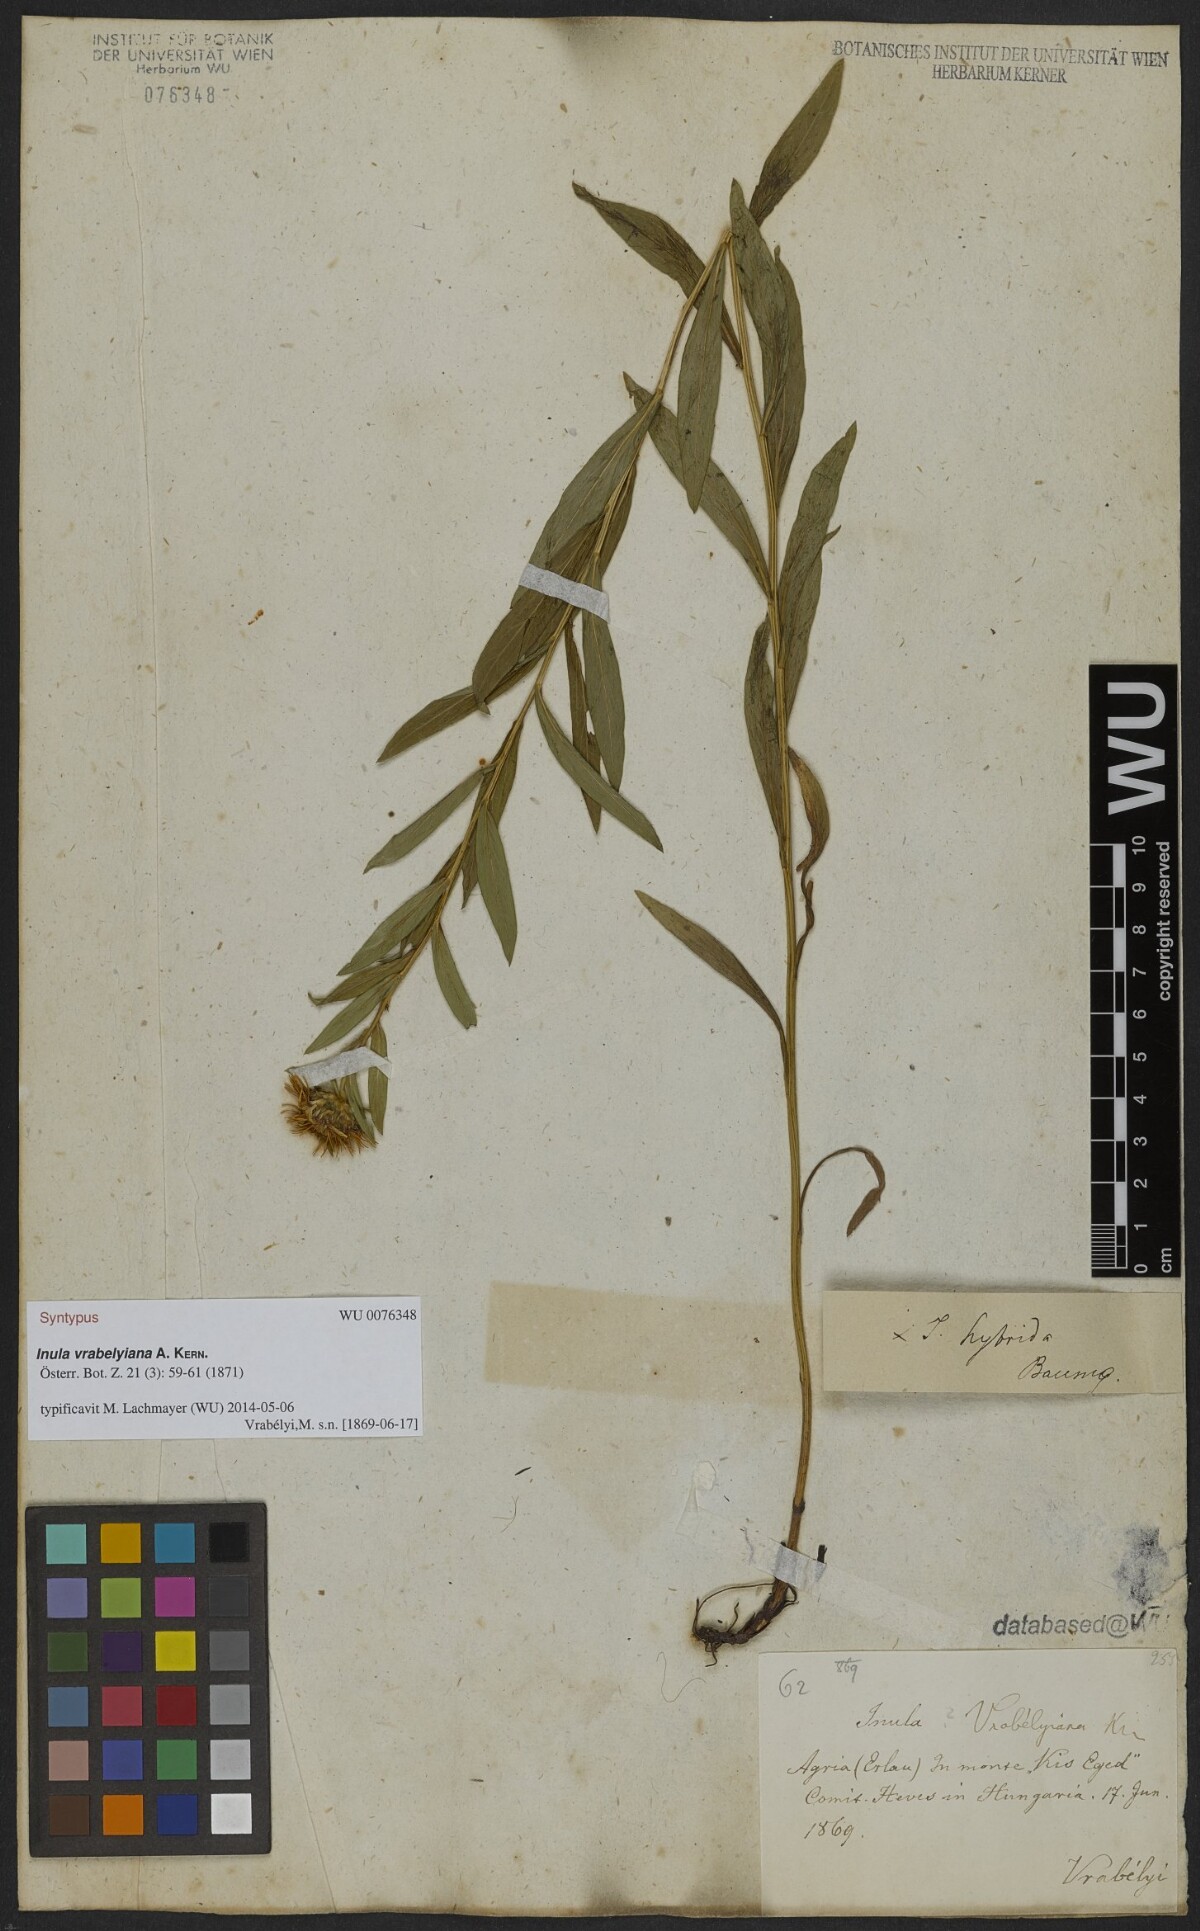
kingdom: Plantae
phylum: Tracheophyta
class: Magnoliopsida
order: Asterales
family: Asteraceae
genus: Pentanema
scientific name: Pentanema strictum
